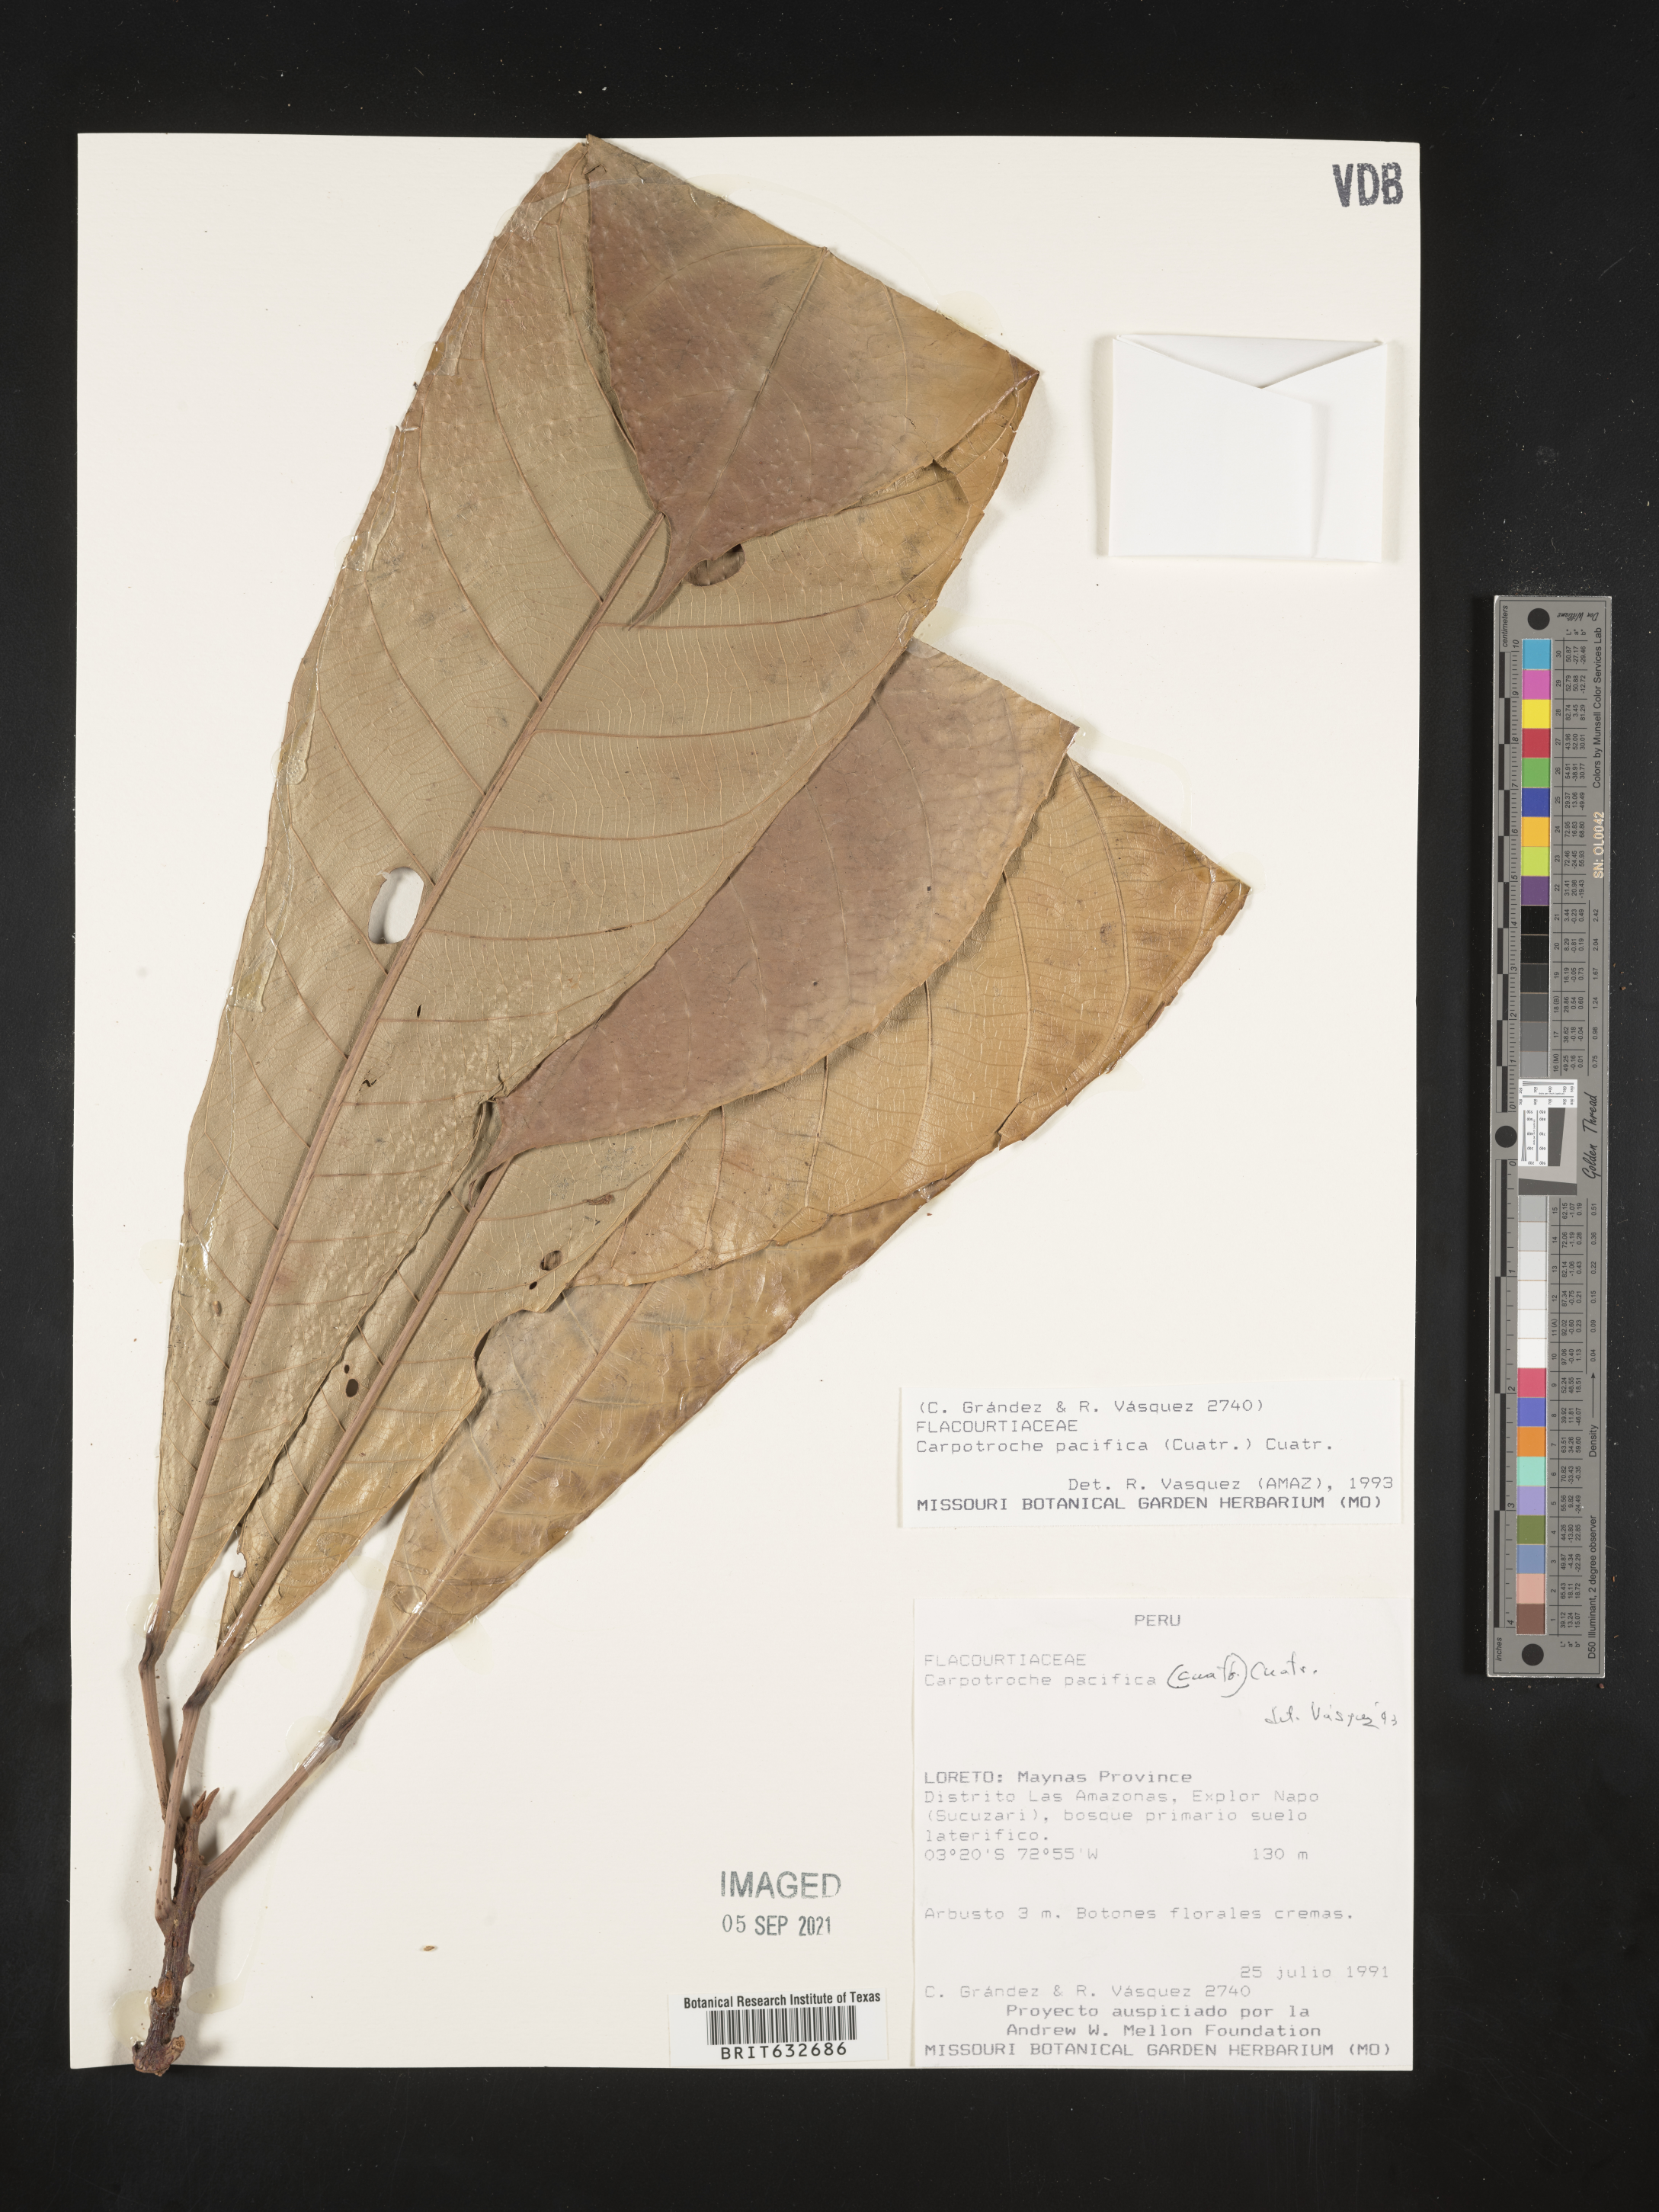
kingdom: Plantae
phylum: Tracheophyta
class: Magnoliopsida
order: Malpighiales
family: Achariaceae
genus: Carpotroche
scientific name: Carpotroche pacifica
